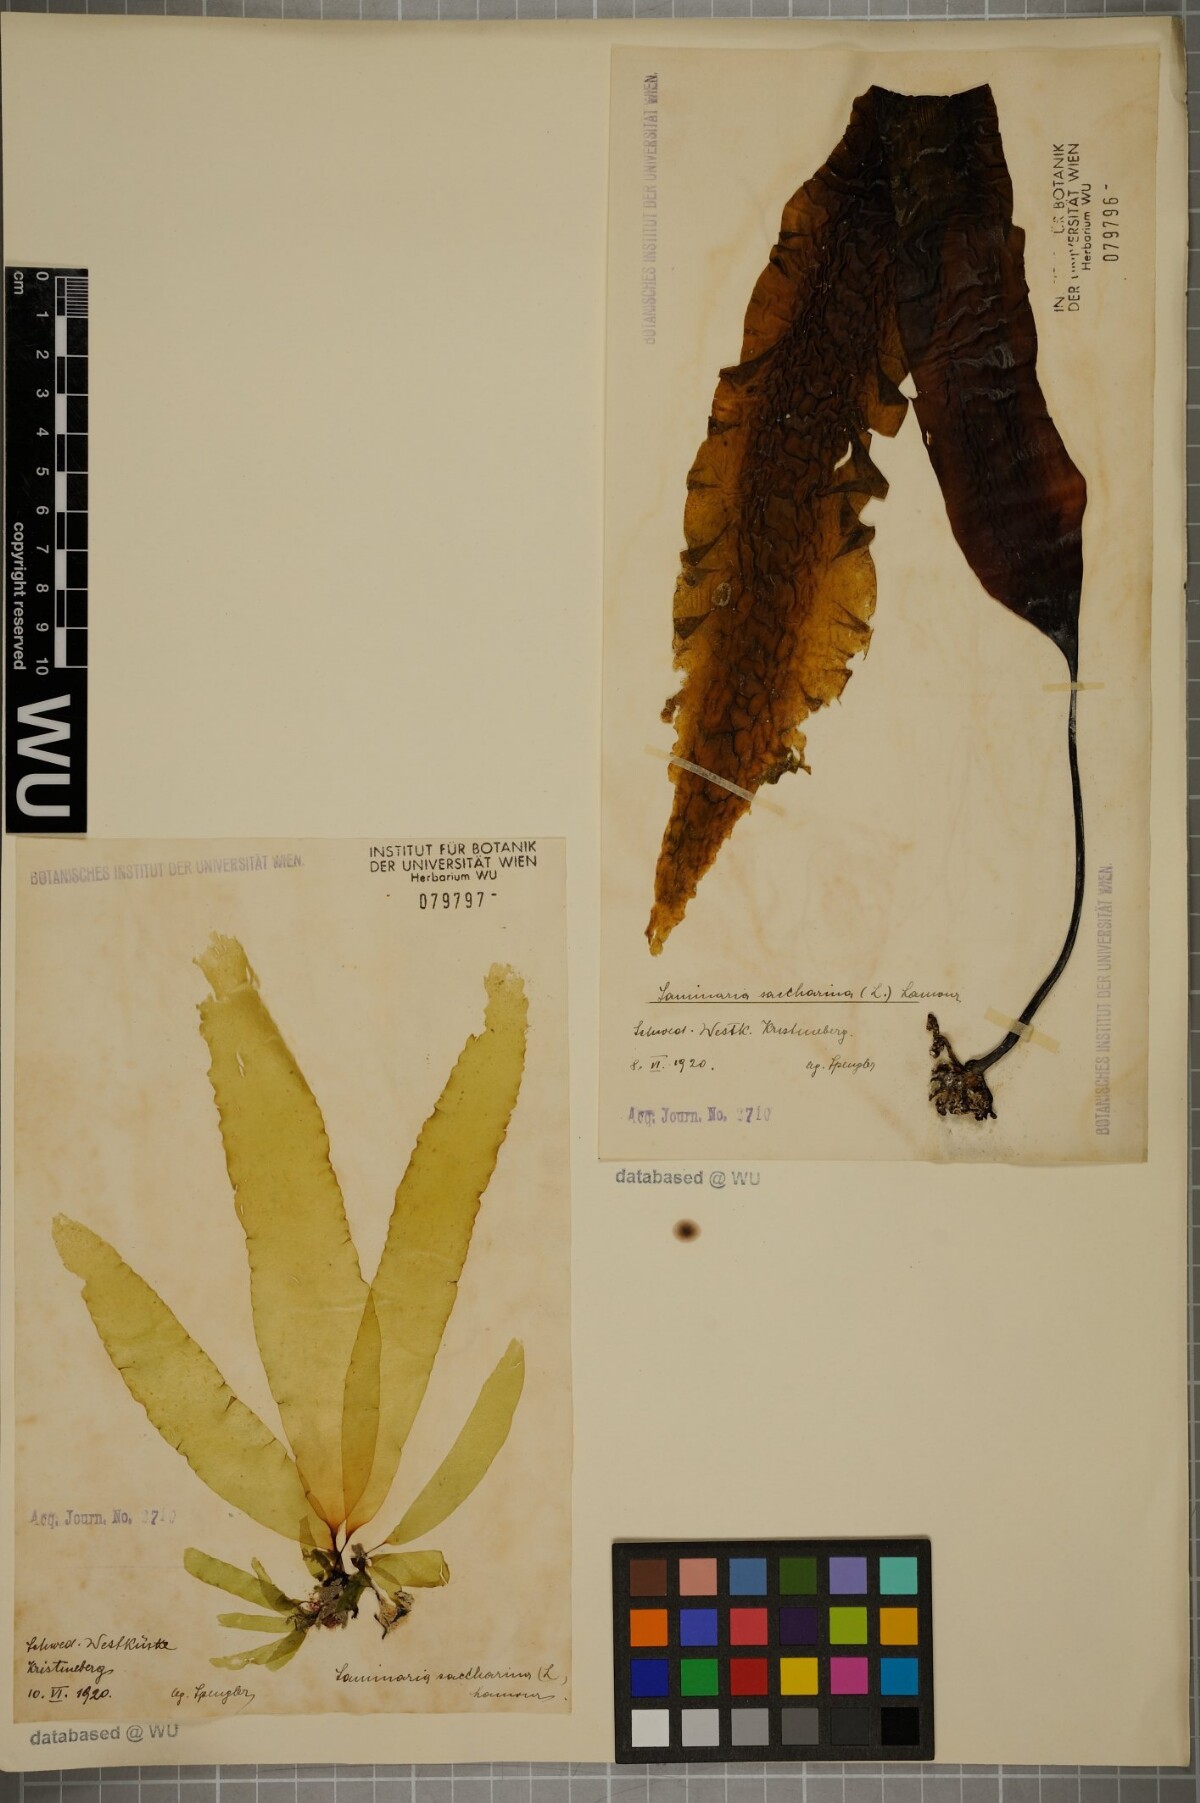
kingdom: Chromista
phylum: Ochrophyta
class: Phaeophyceae
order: Laminariales
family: Laminariaceae
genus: Saccharina
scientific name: Saccharina latissima
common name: Poor man's weather glass
